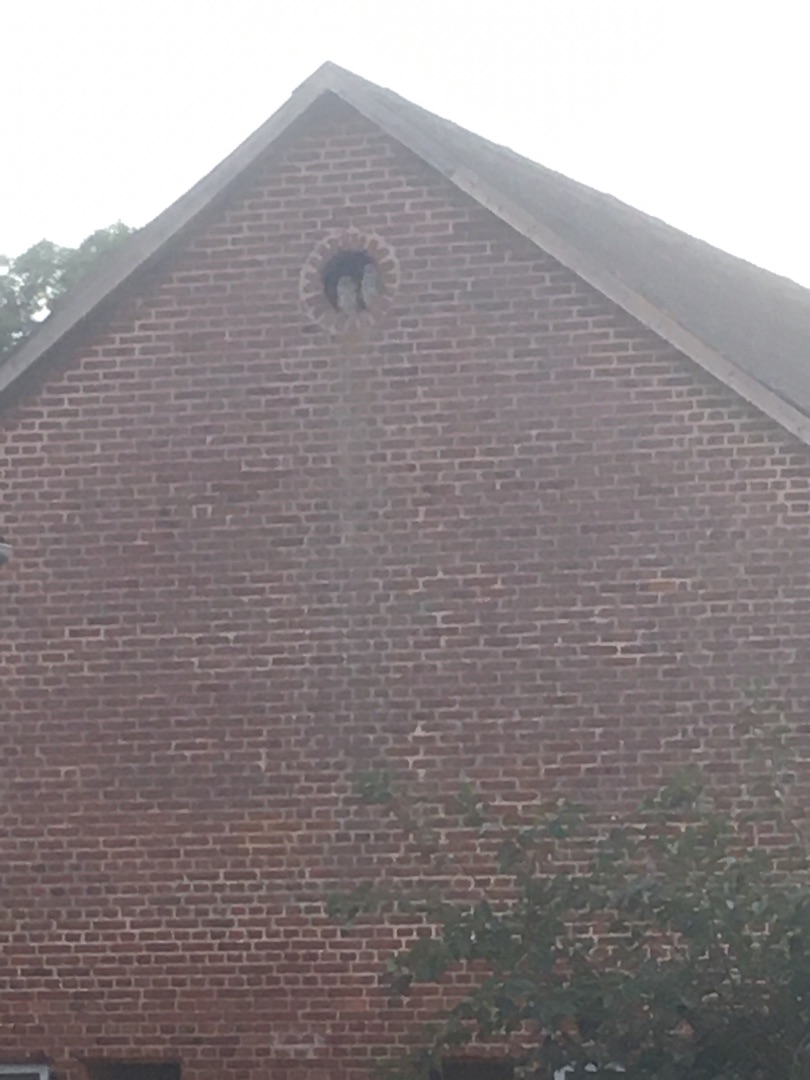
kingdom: Animalia
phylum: Chordata
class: Aves
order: Strigiformes
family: Strigidae
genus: Strix
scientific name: Strix aluco
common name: Natugle
